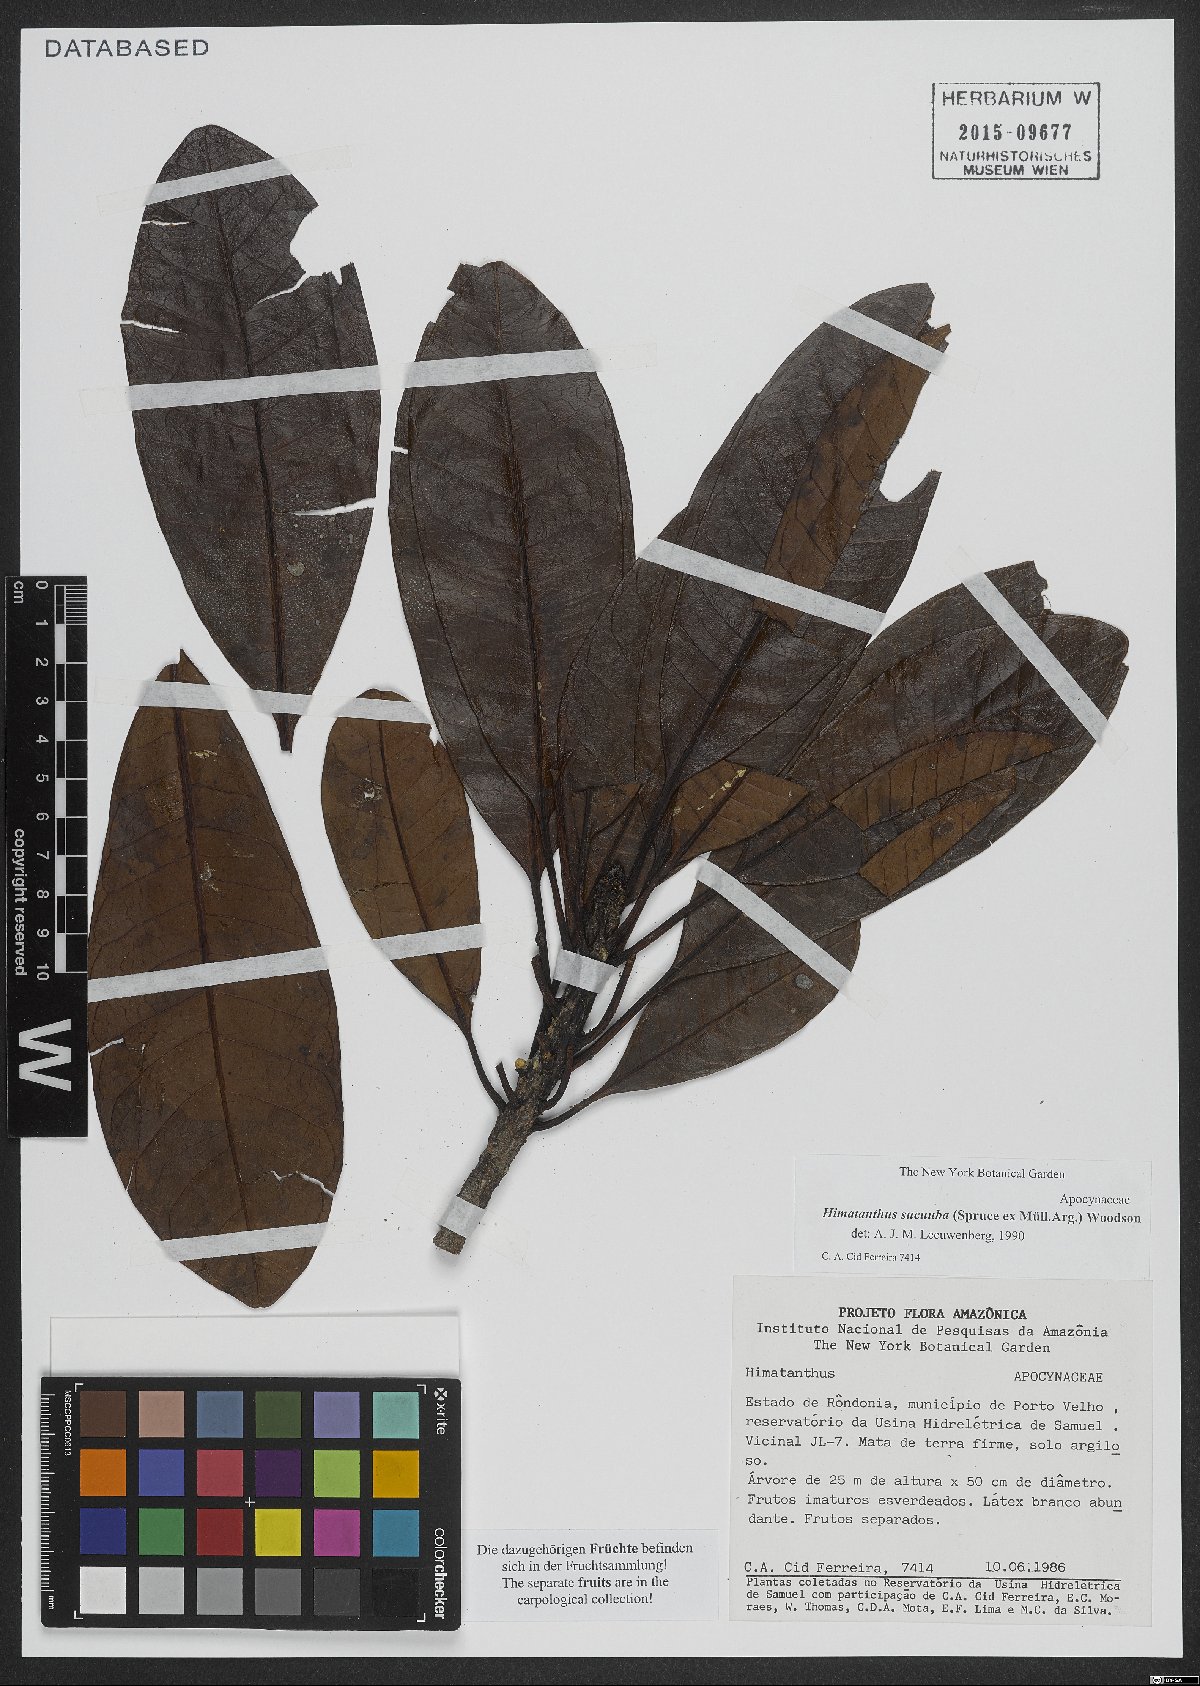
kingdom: Plantae
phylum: Tracheophyta
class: Magnoliopsida
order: Gentianales
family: Apocynaceae
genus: Himatanthus
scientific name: Himatanthus articulatus
